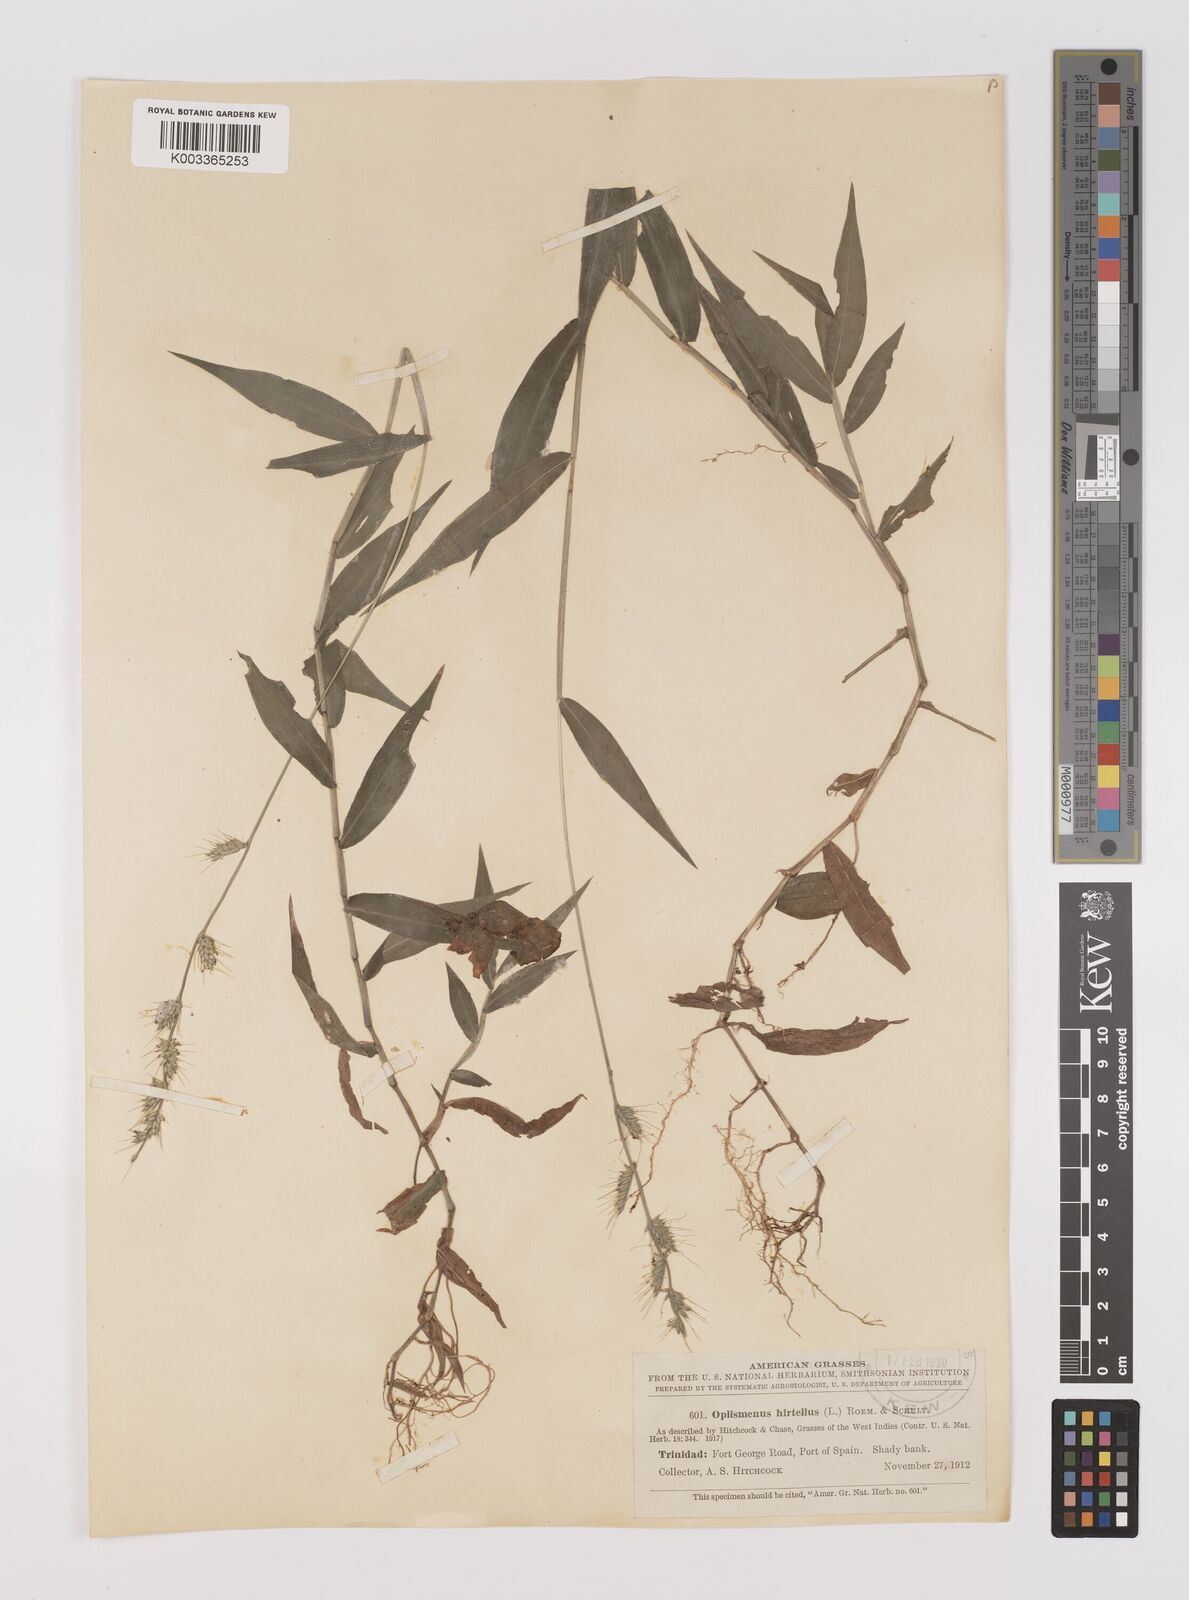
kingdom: Plantae
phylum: Tracheophyta
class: Liliopsida
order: Poales
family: Poaceae
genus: Oplismenus
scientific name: Oplismenus hirtellus
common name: Basketgrass
